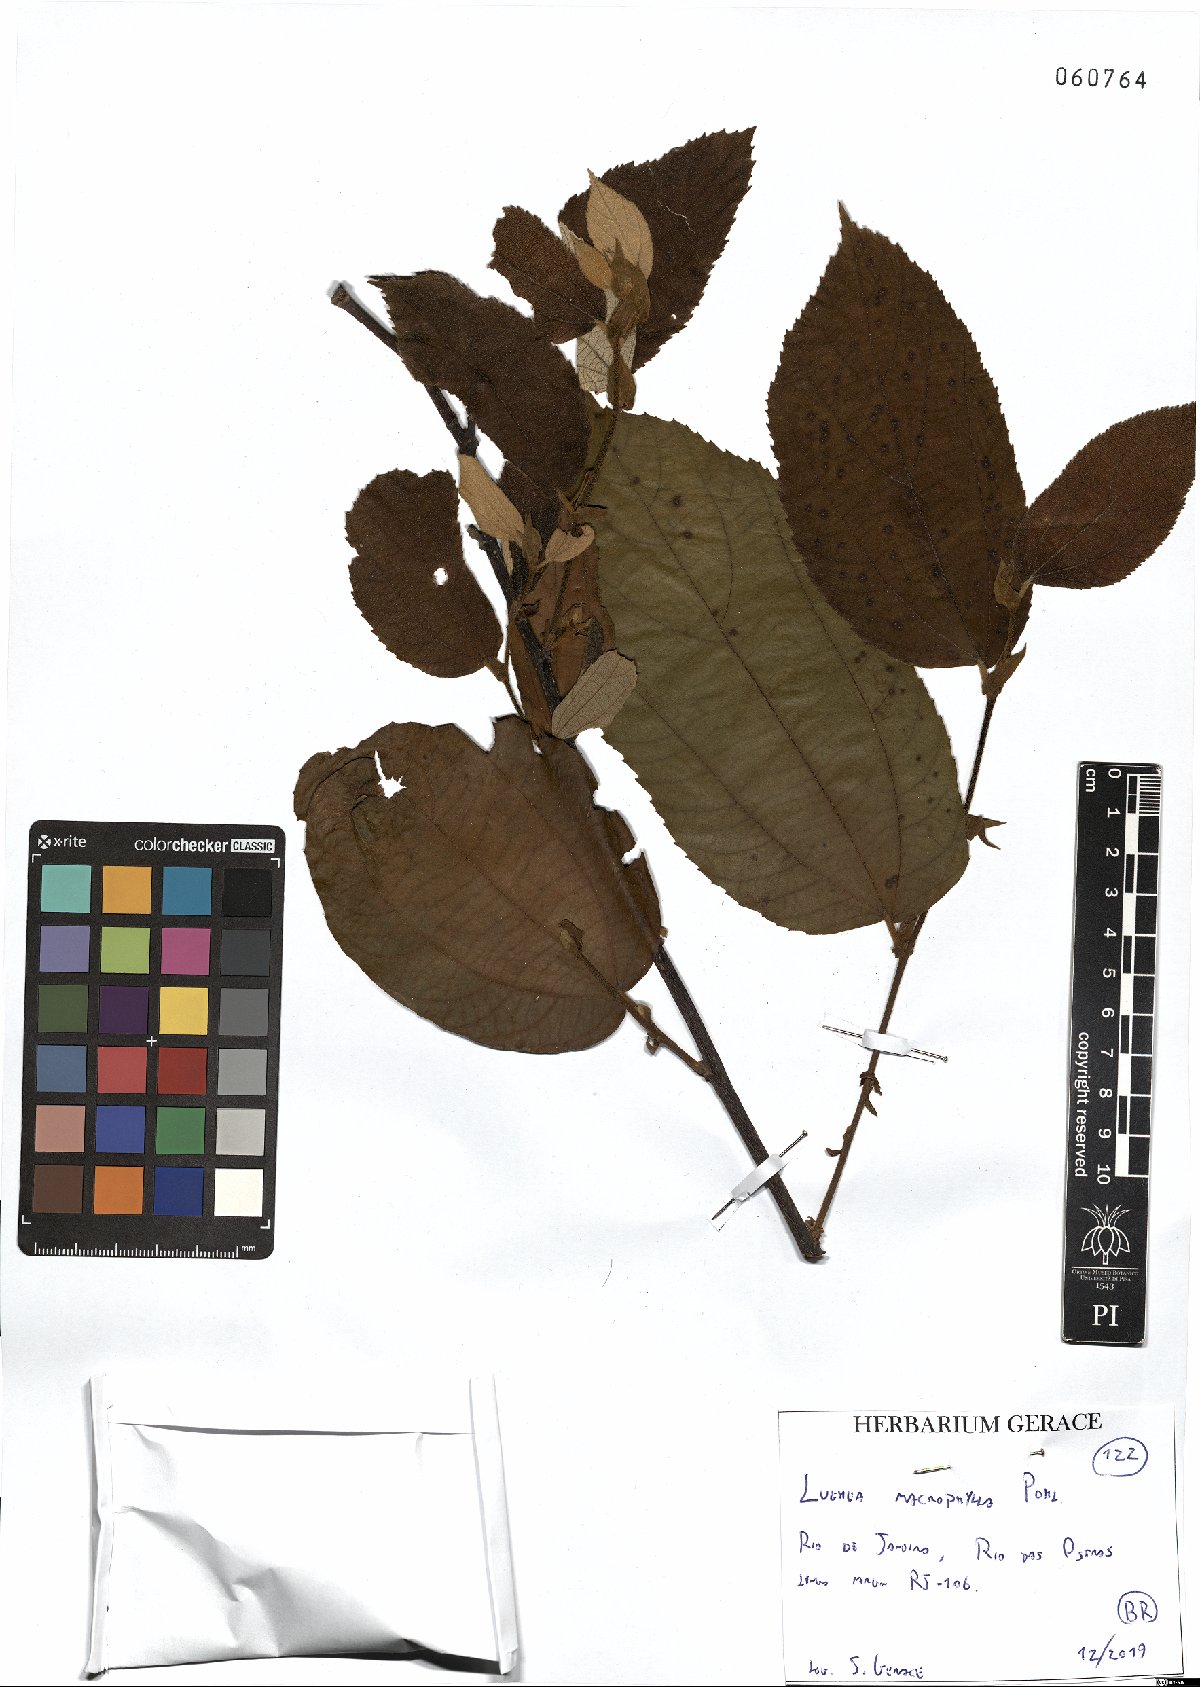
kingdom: Plantae
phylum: Tracheophyta
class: Magnoliopsida
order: Malvales
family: Malvaceae
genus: Luehea
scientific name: Luehea rufescens
